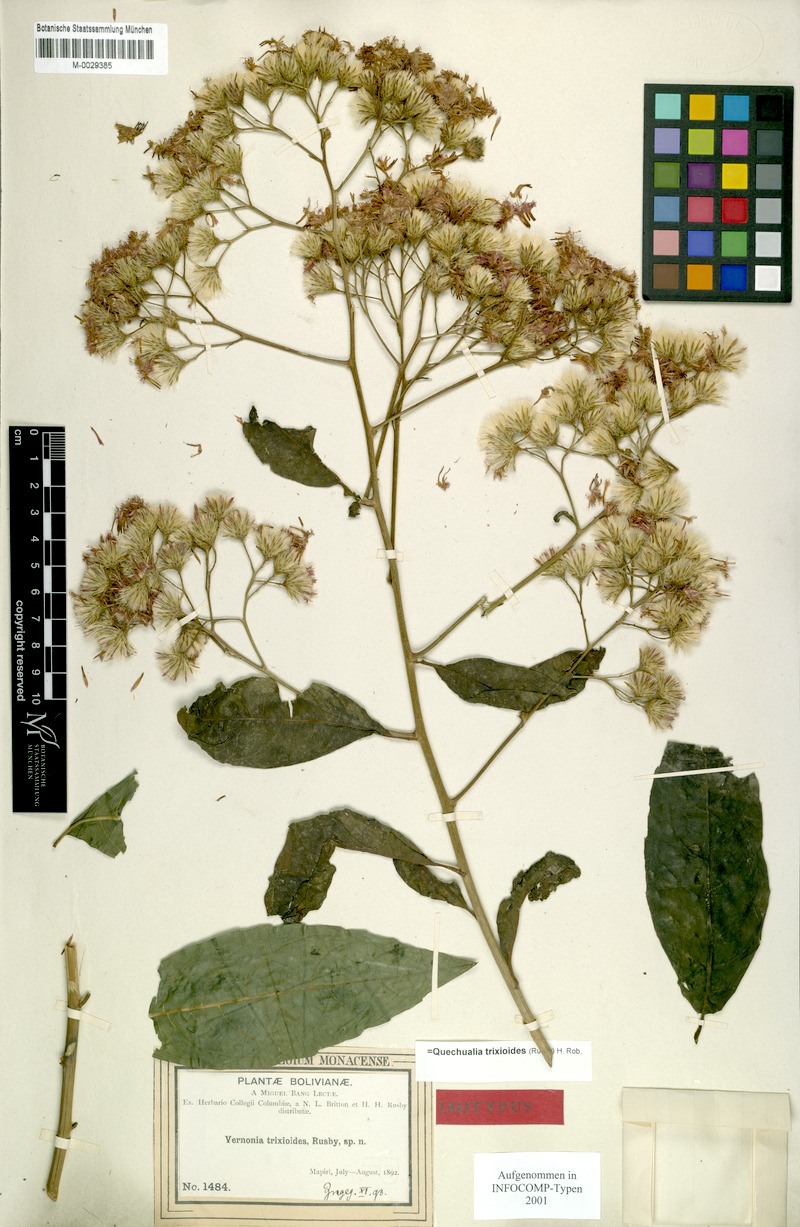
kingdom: Plantae
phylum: Tracheophyta
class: Magnoliopsida
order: Asterales
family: Asteraceae
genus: Quechualia
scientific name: Quechualia trixioides
